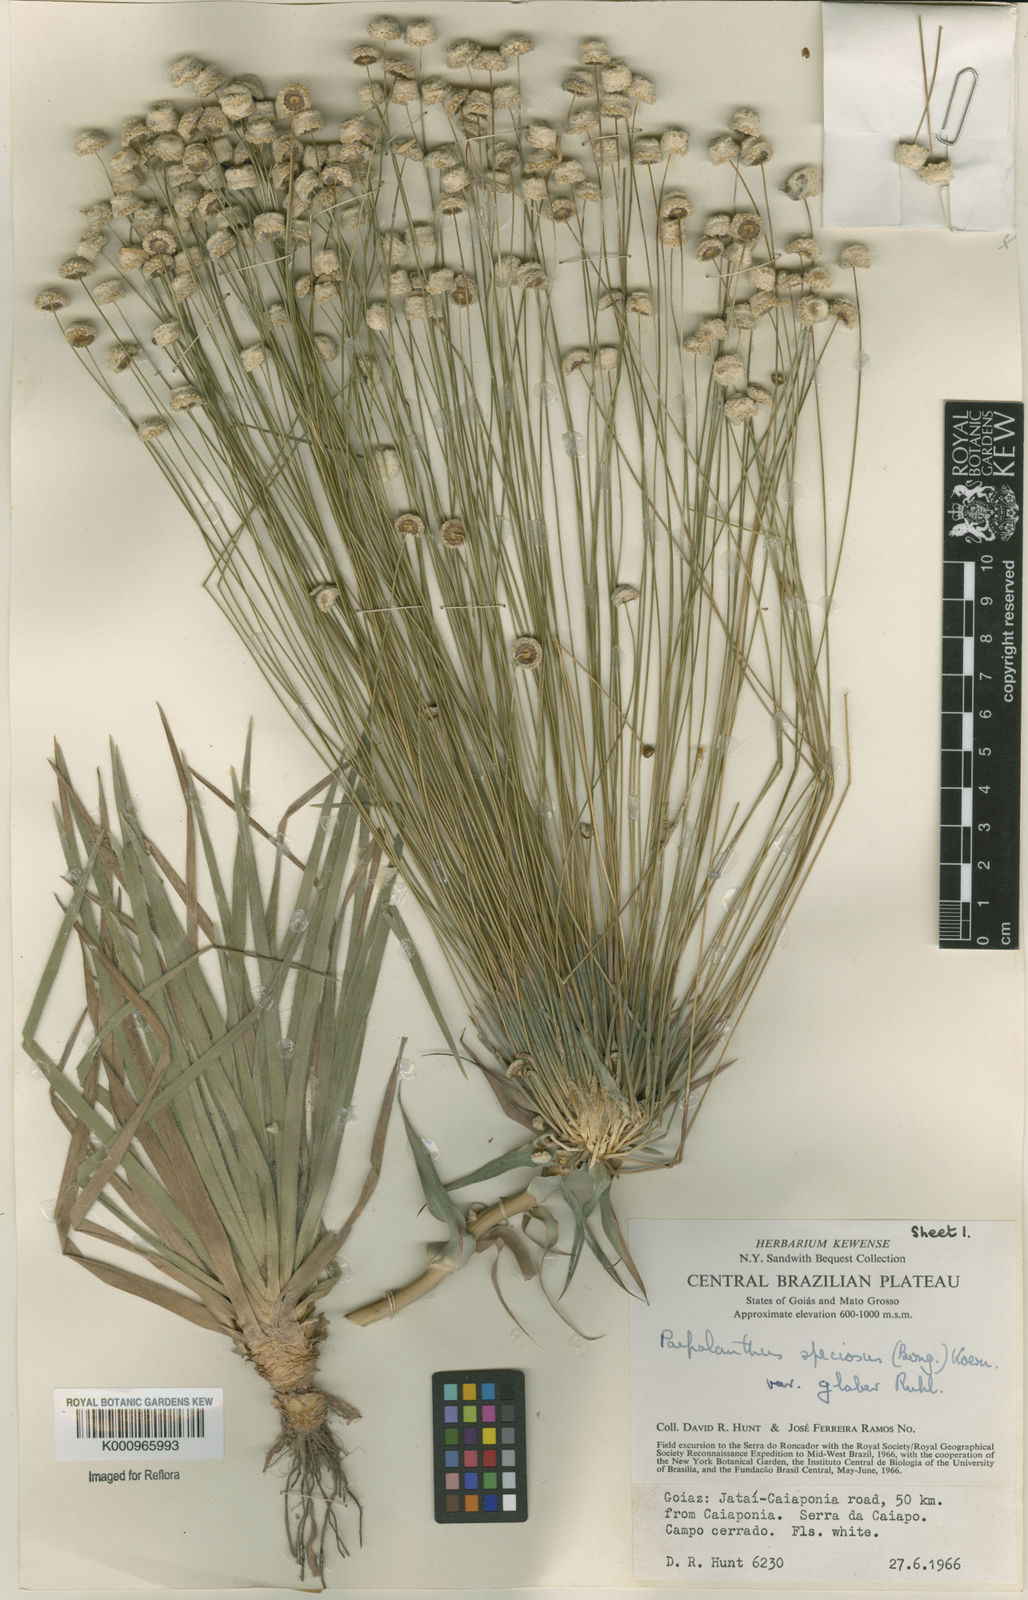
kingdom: Plantae
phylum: Tracheophyta
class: Liliopsida
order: Poales
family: Eriocaulaceae
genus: Paepalanthus
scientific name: Paepalanthus erectifolius
